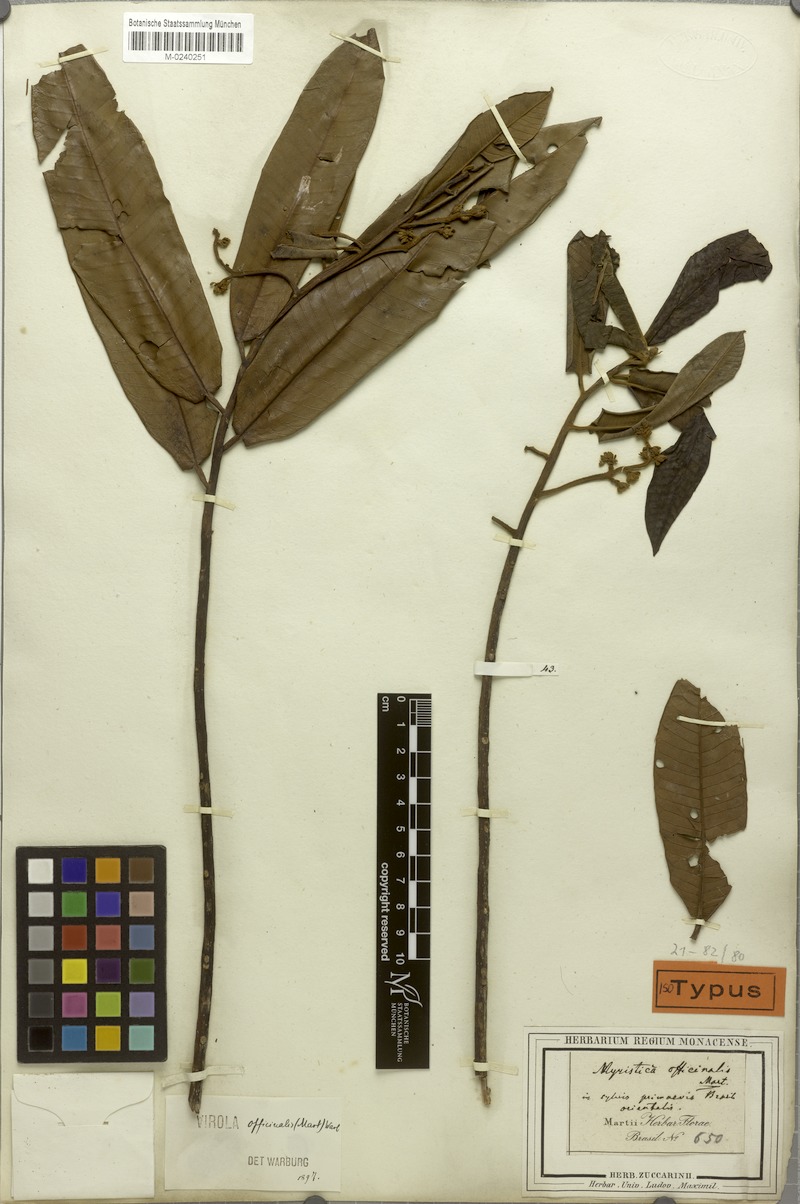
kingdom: Plantae
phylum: Tracheophyta
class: Magnoliopsida
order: Magnoliales
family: Myristicaceae
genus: Virola
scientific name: Virola officinalis
